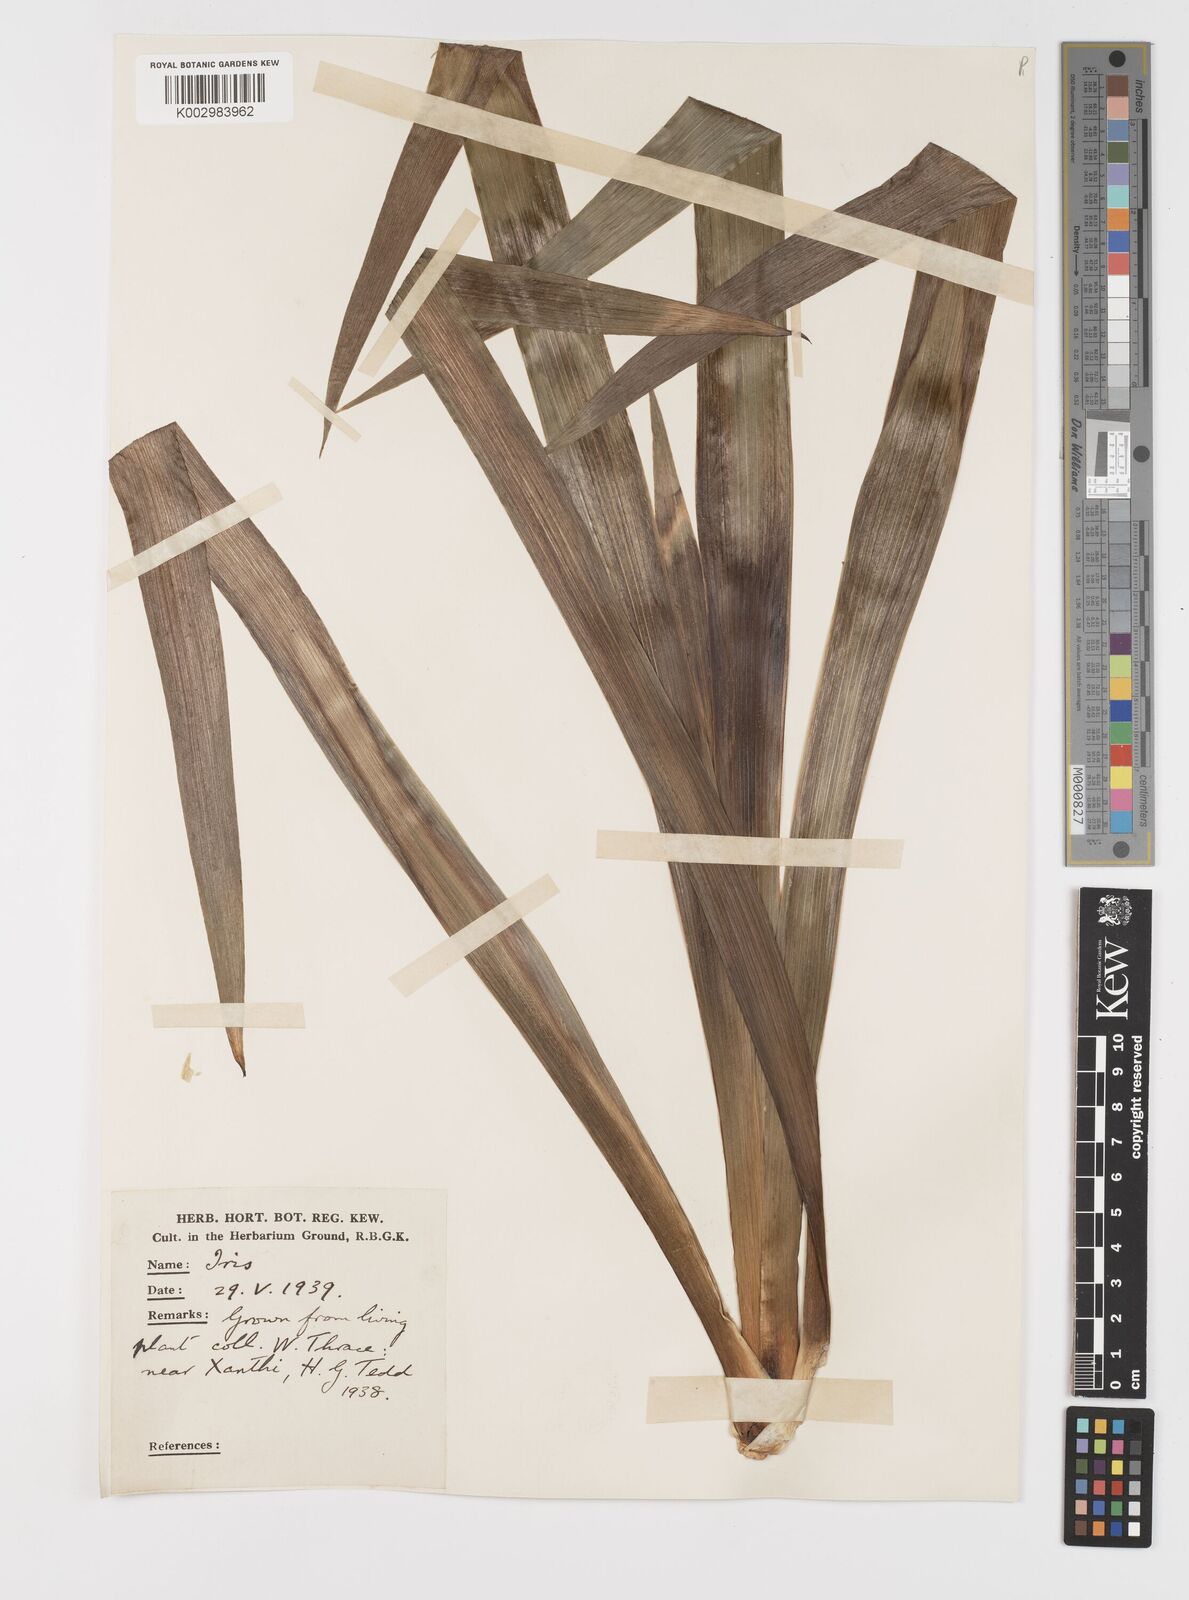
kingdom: Plantae
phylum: Tracheophyta
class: Liliopsida
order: Asparagales
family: Iridaceae
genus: Iris
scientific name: Iris germanica
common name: German iris
